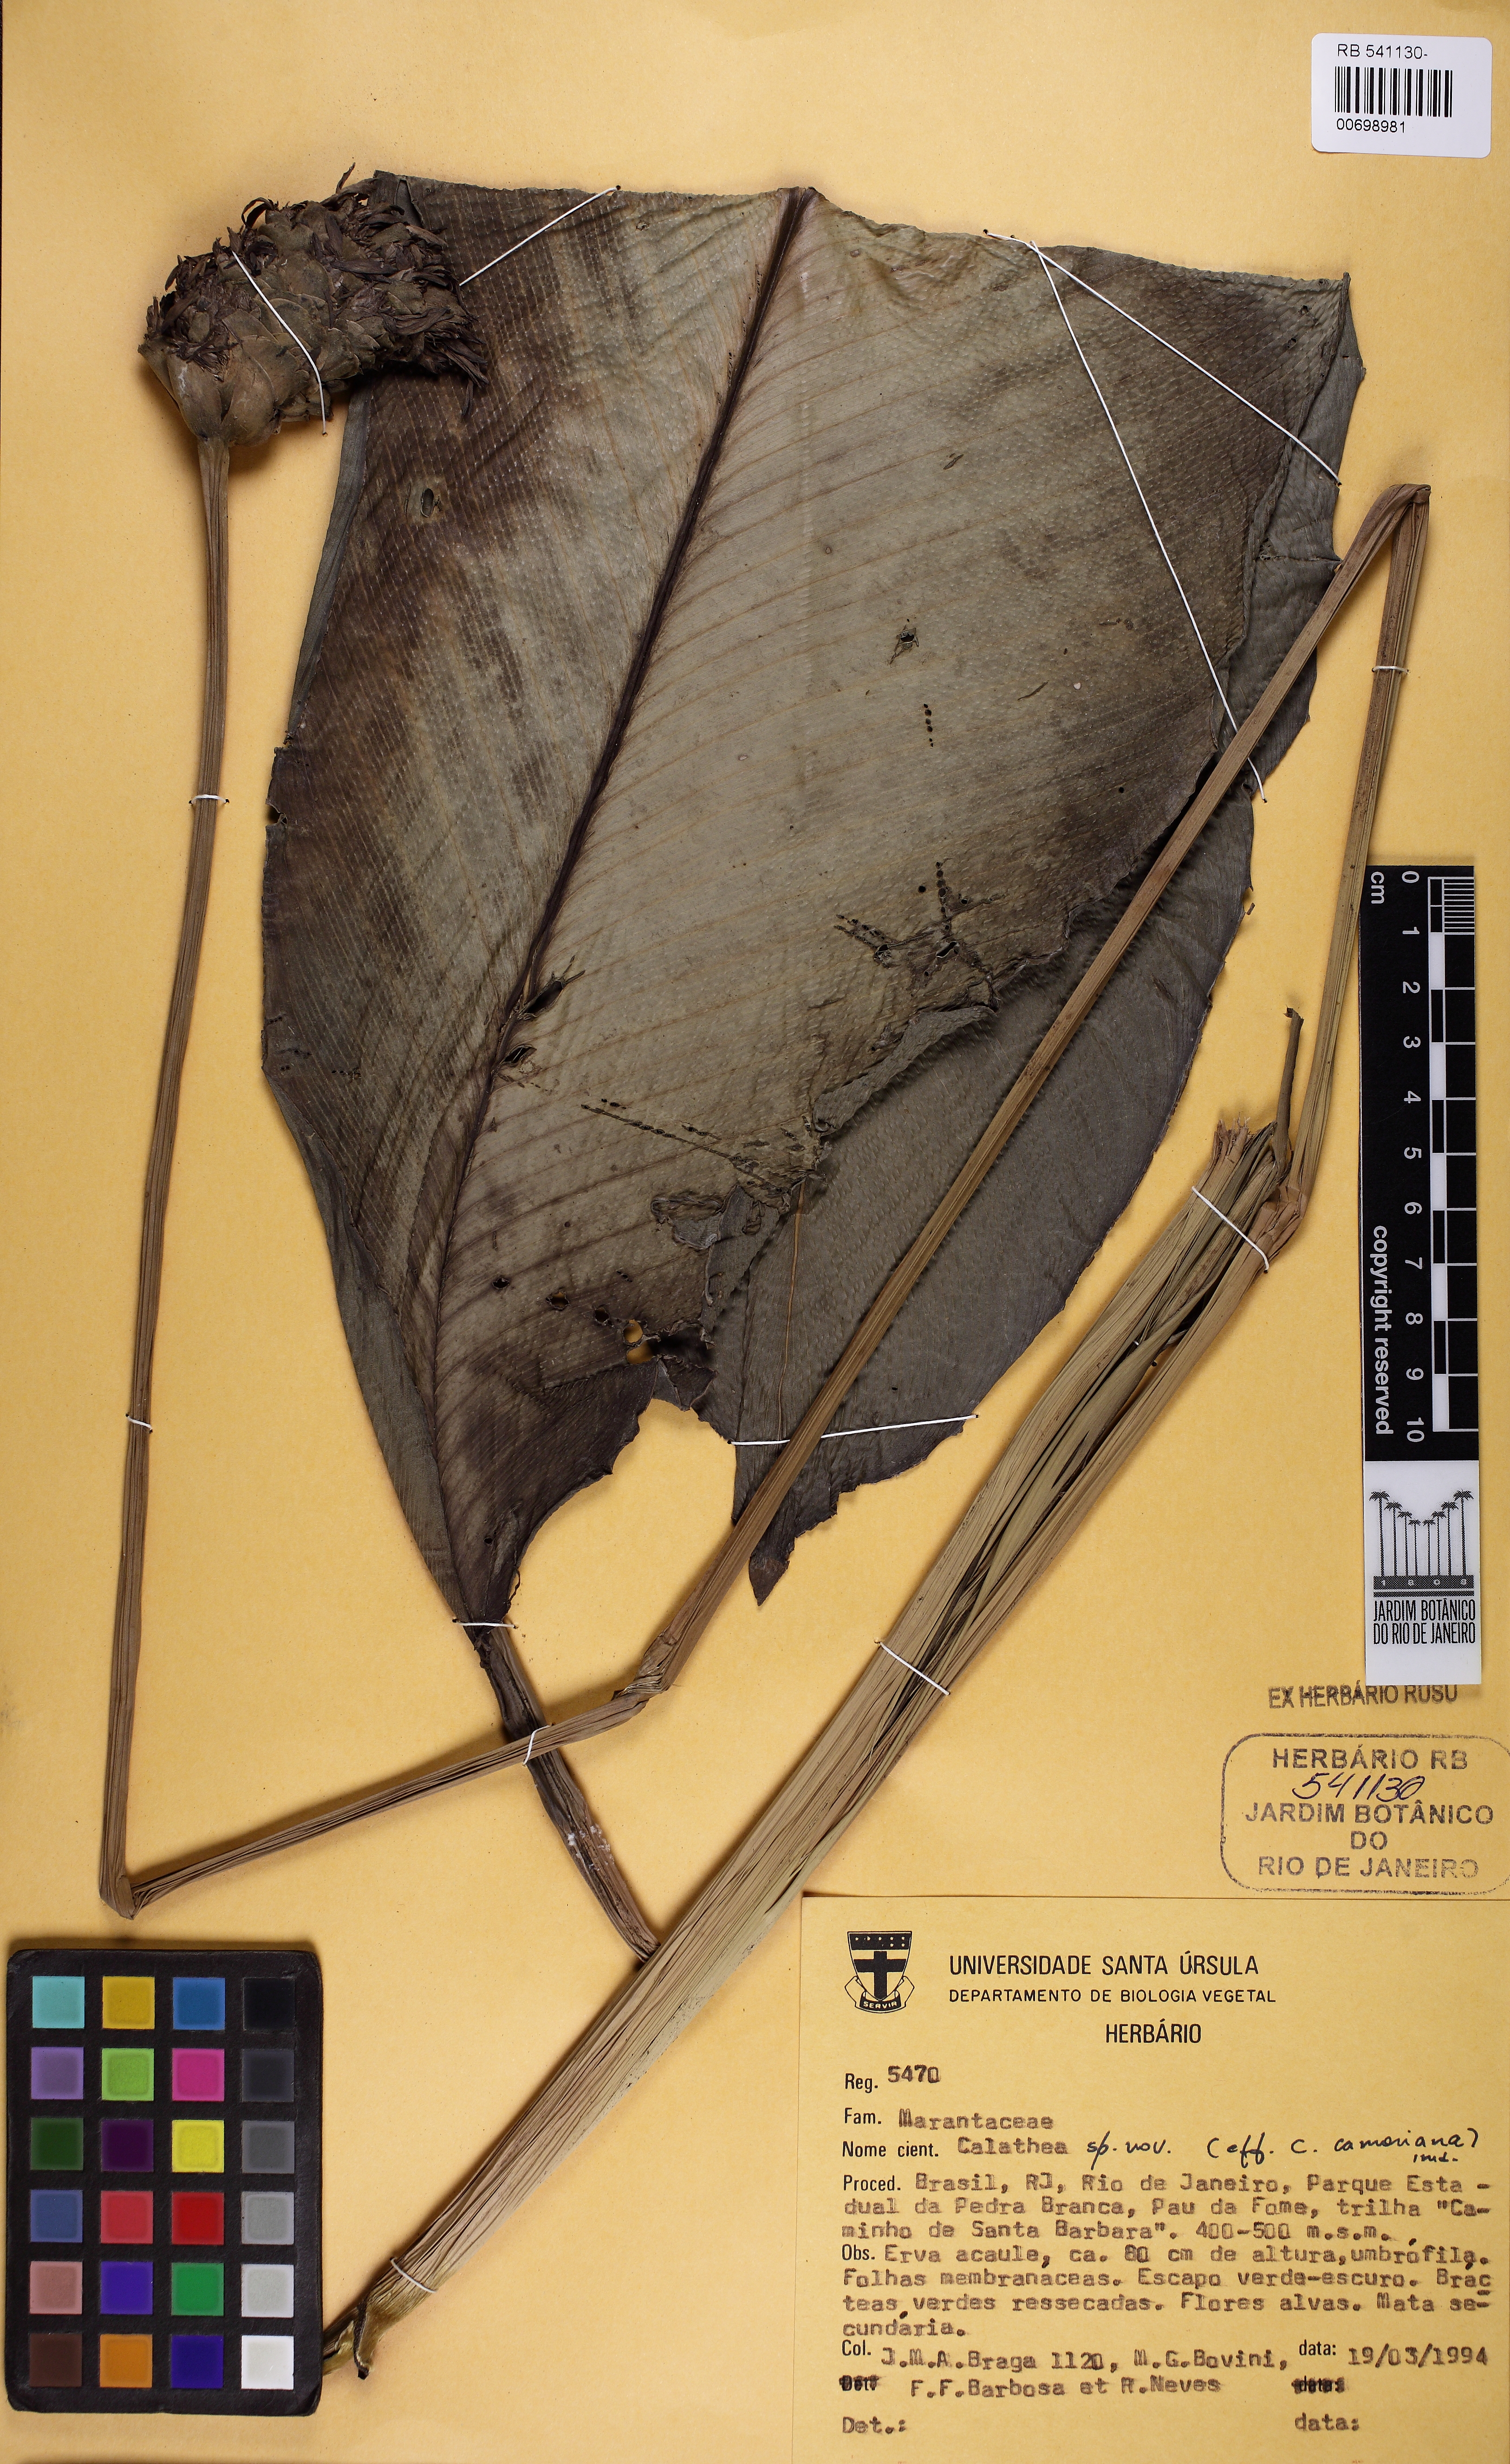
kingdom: Plantae
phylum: Tracheophyta
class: Liliopsida
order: Zingiberales
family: Marantaceae
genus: Calathea
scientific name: Calathea
